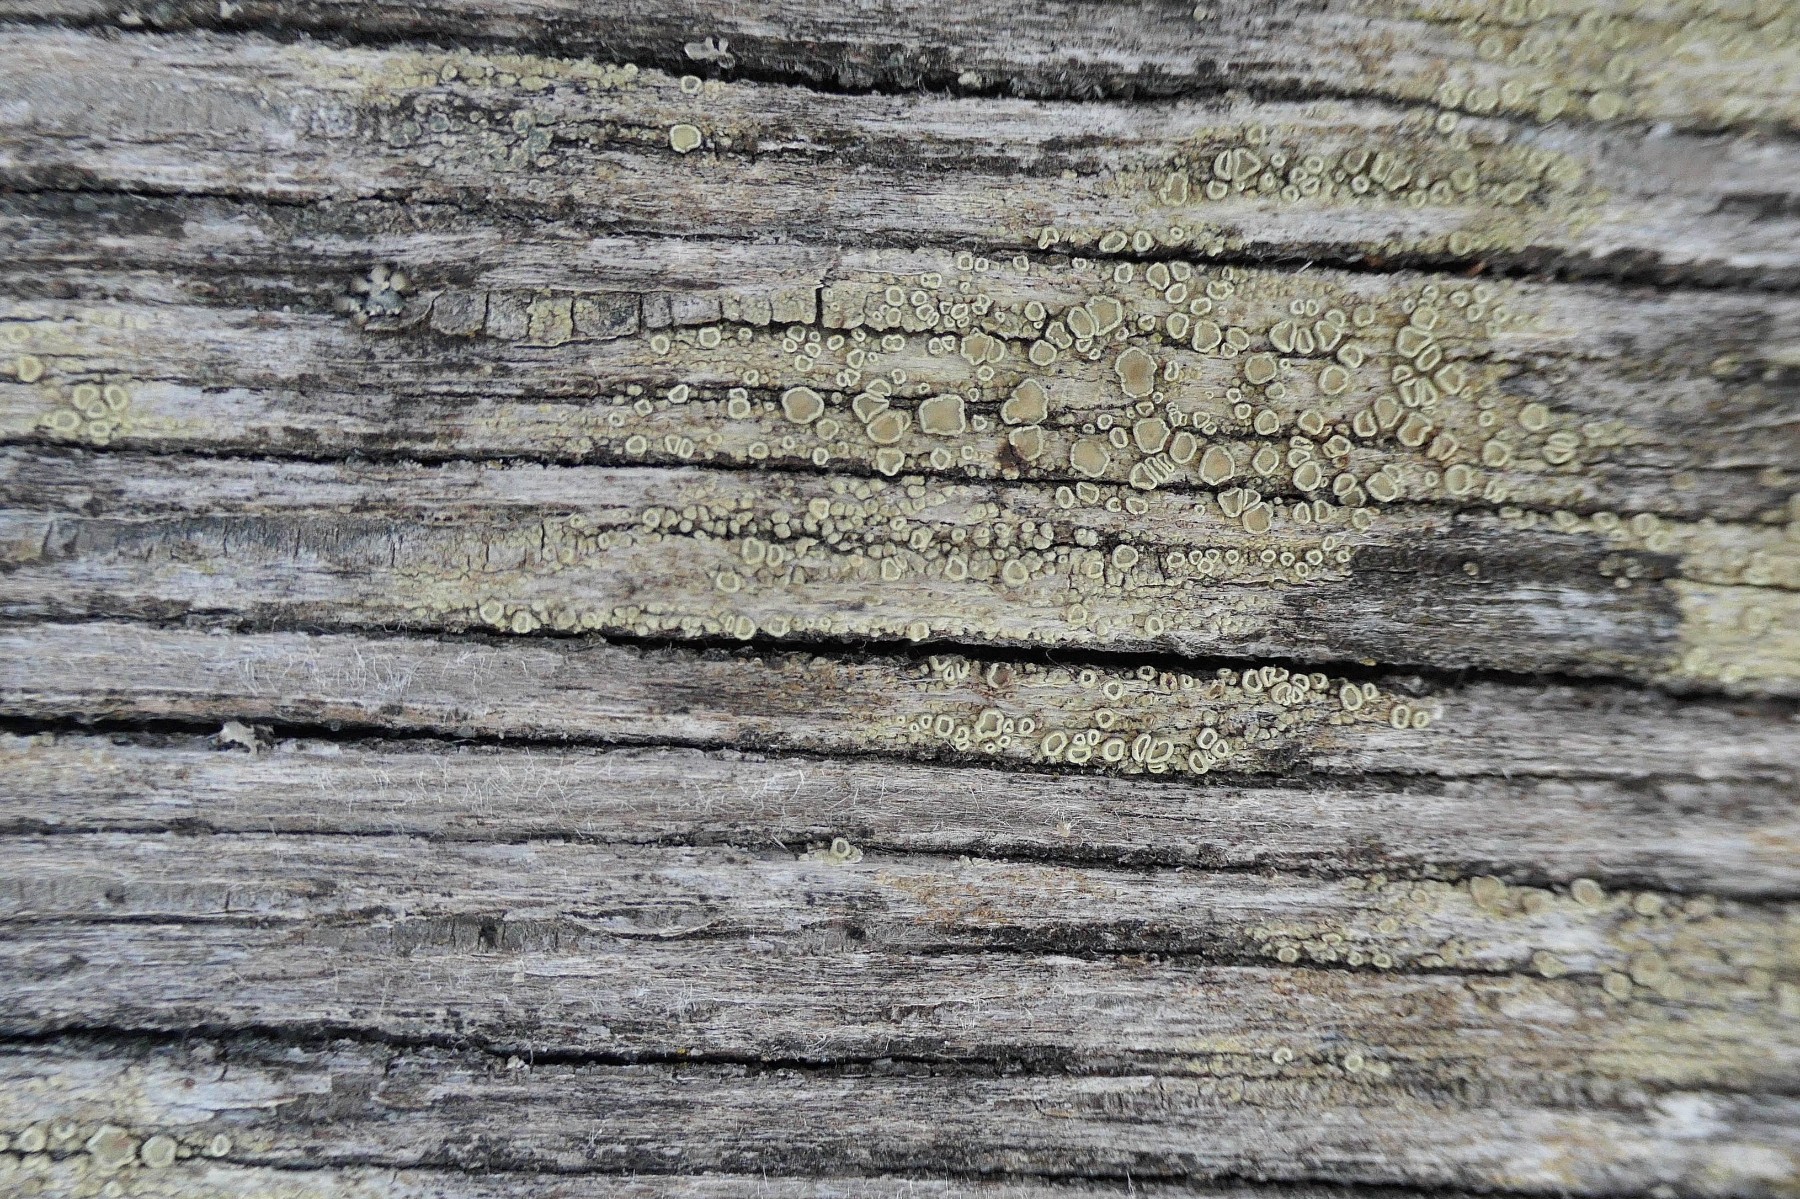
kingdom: Fungi
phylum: Ascomycota
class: Lecanoromycetes
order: Lecanorales
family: Lecanoraceae
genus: Straminella
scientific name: Straminella varia
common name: gulgrøn kantskivelav
